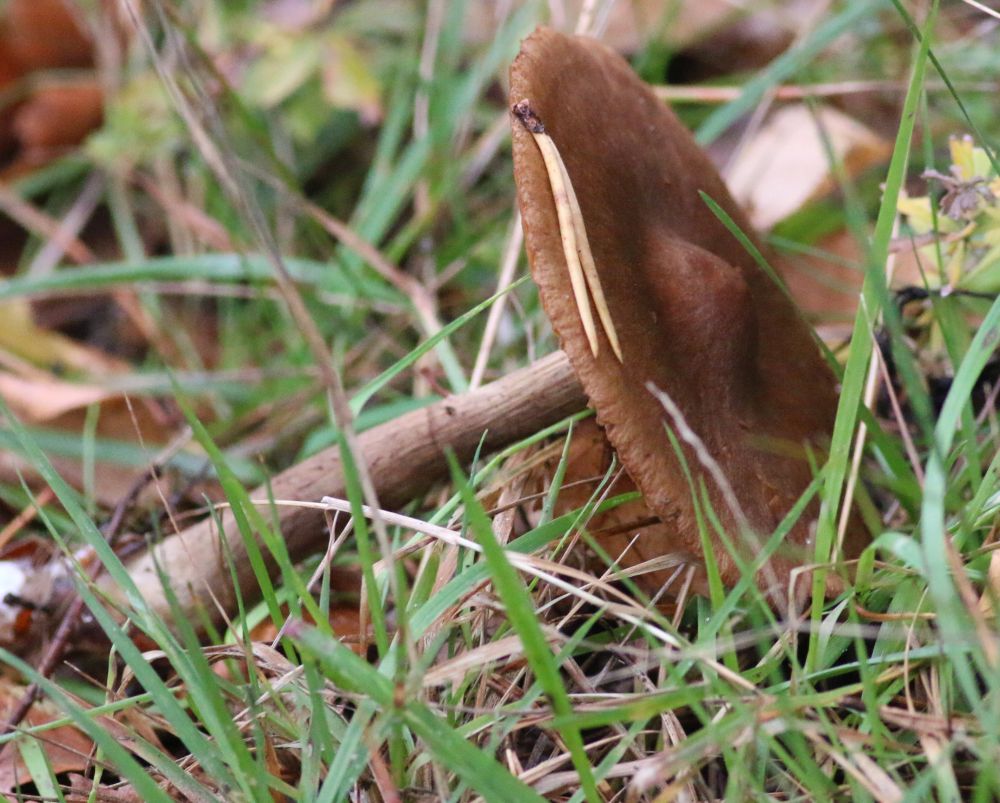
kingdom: Fungi
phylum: Basidiomycota
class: Agaricomycetes
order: Agaricales
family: Cortinariaceae
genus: Cortinarius
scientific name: Cortinarius
